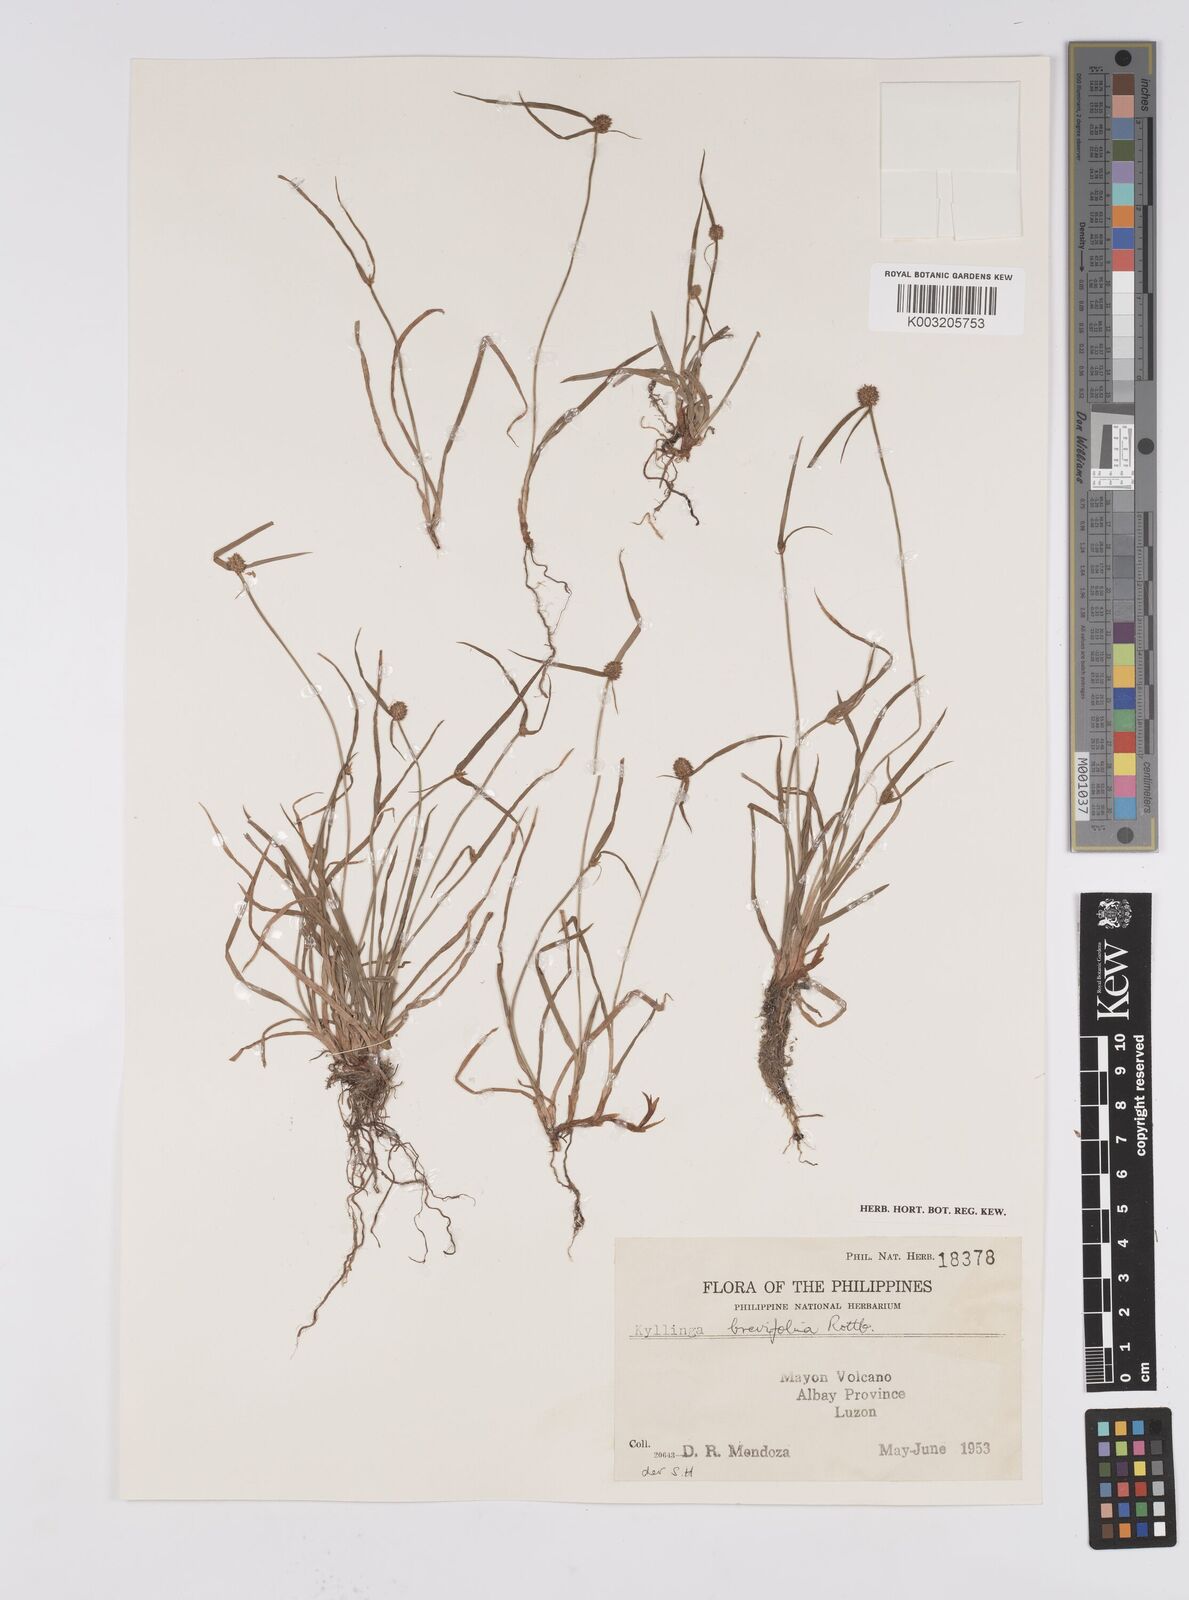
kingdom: Plantae
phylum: Tracheophyta
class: Liliopsida
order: Poales
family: Cyperaceae
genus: Cyperus
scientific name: Cyperus brevifolius
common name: Globe kyllinga
